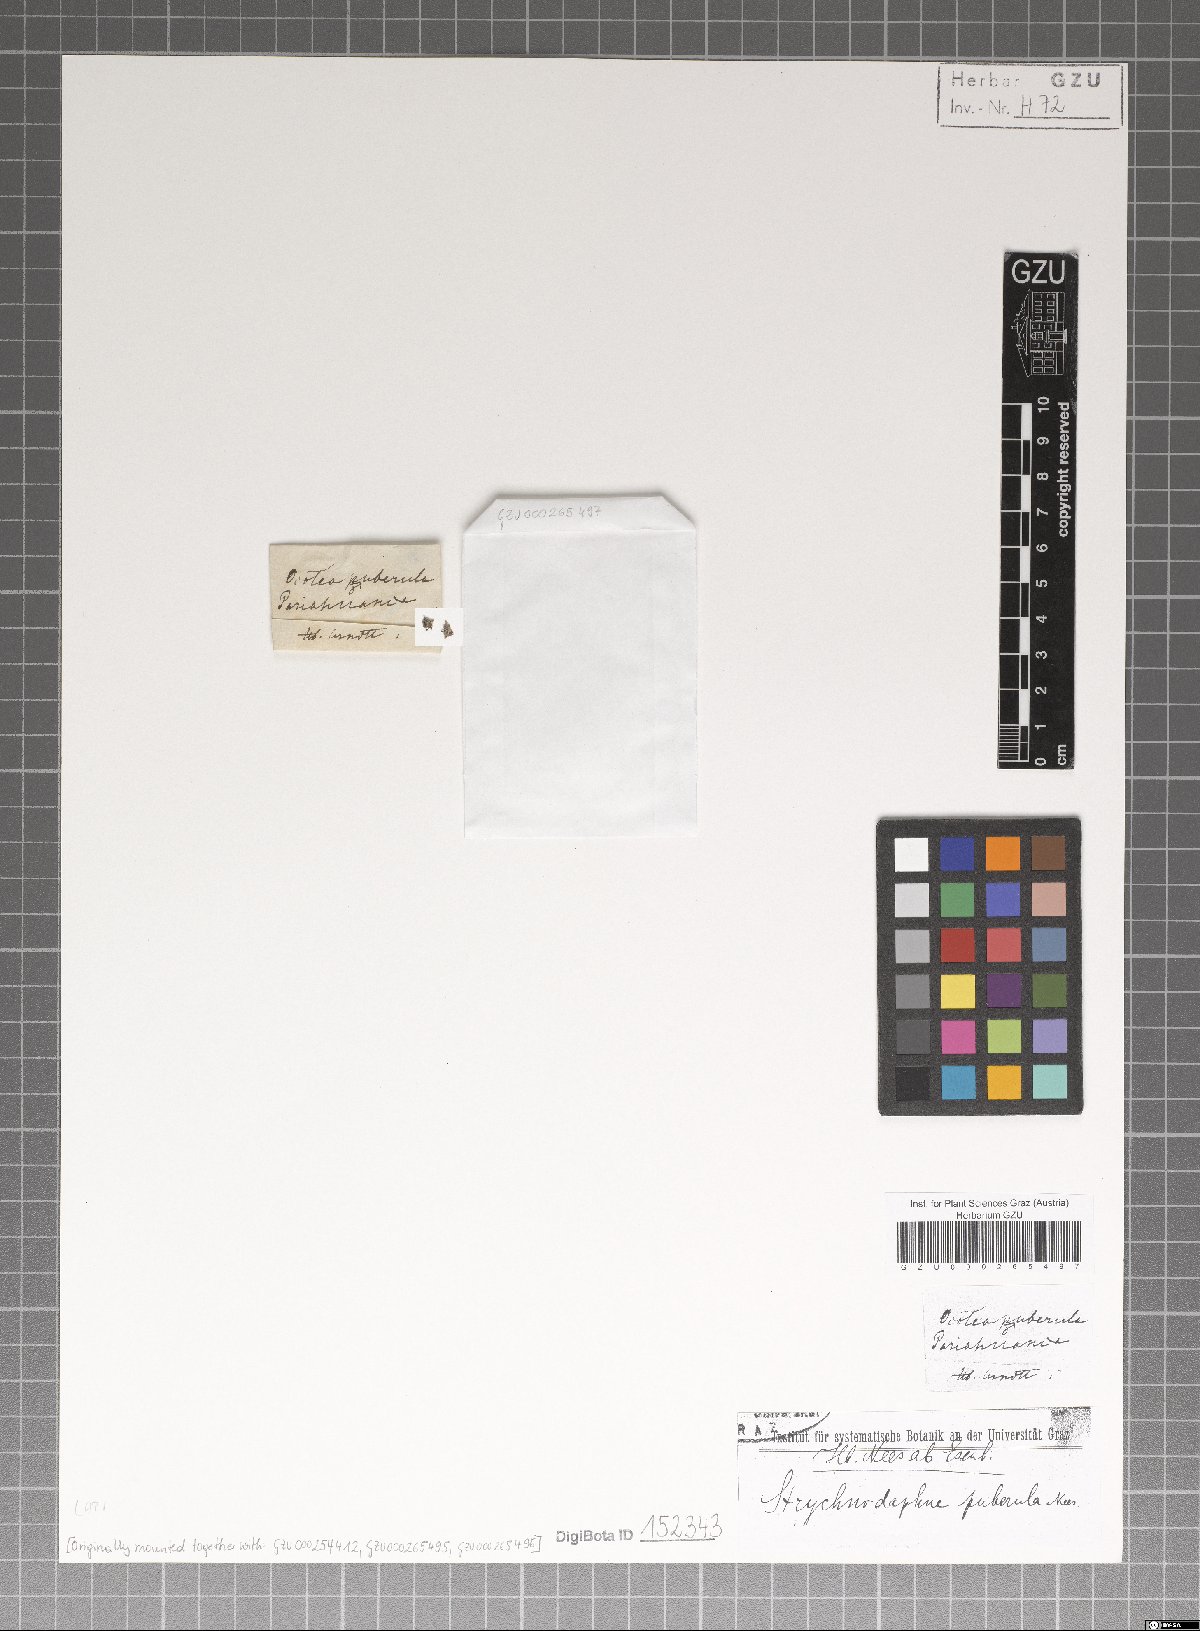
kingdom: Plantae
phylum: Tracheophyta
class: Magnoliopsida
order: Laurales
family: Lauraceae
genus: Ocotea
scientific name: Ocotea puberula
